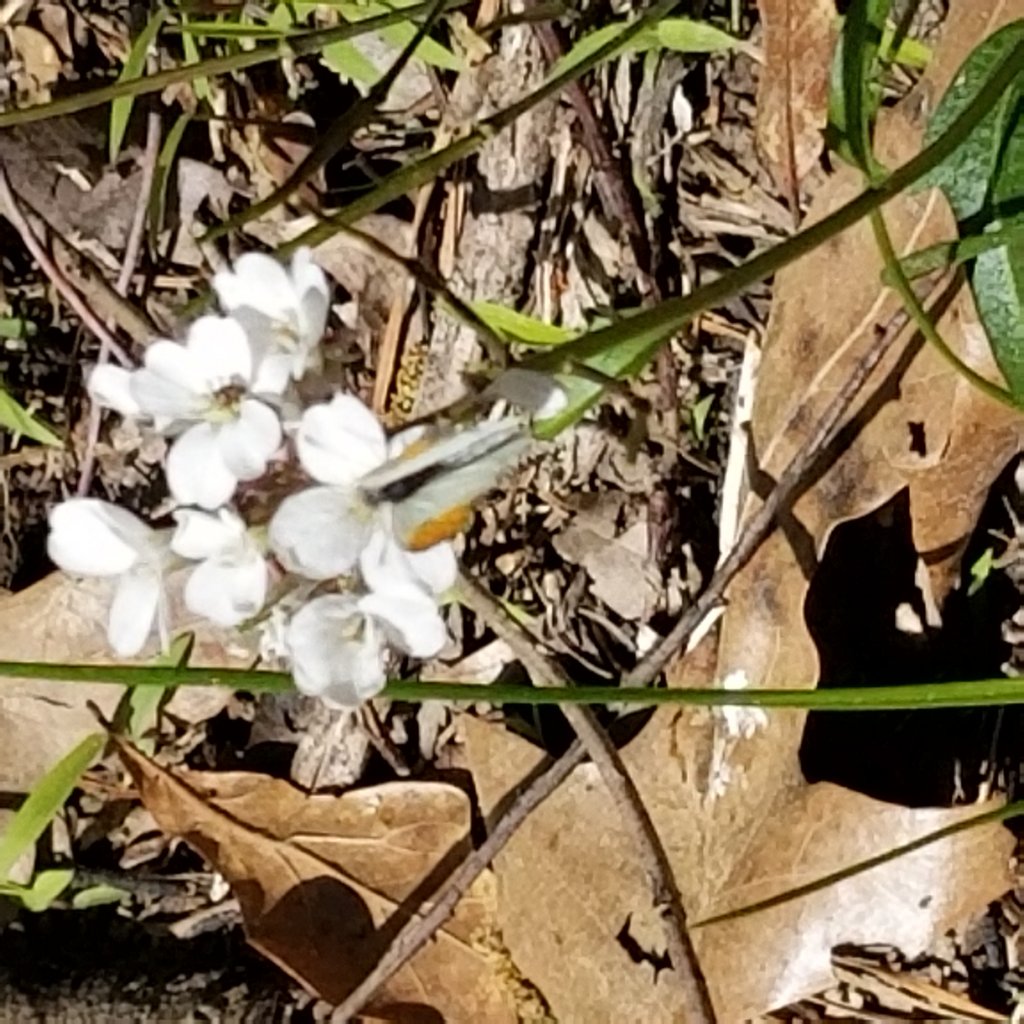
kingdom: Animalia
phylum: Arthropoda
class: Insecta
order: Lepidoptera
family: Papilionidae
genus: Pterourus
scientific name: Pterourus palamedes
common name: Palamedes Swallowtail
